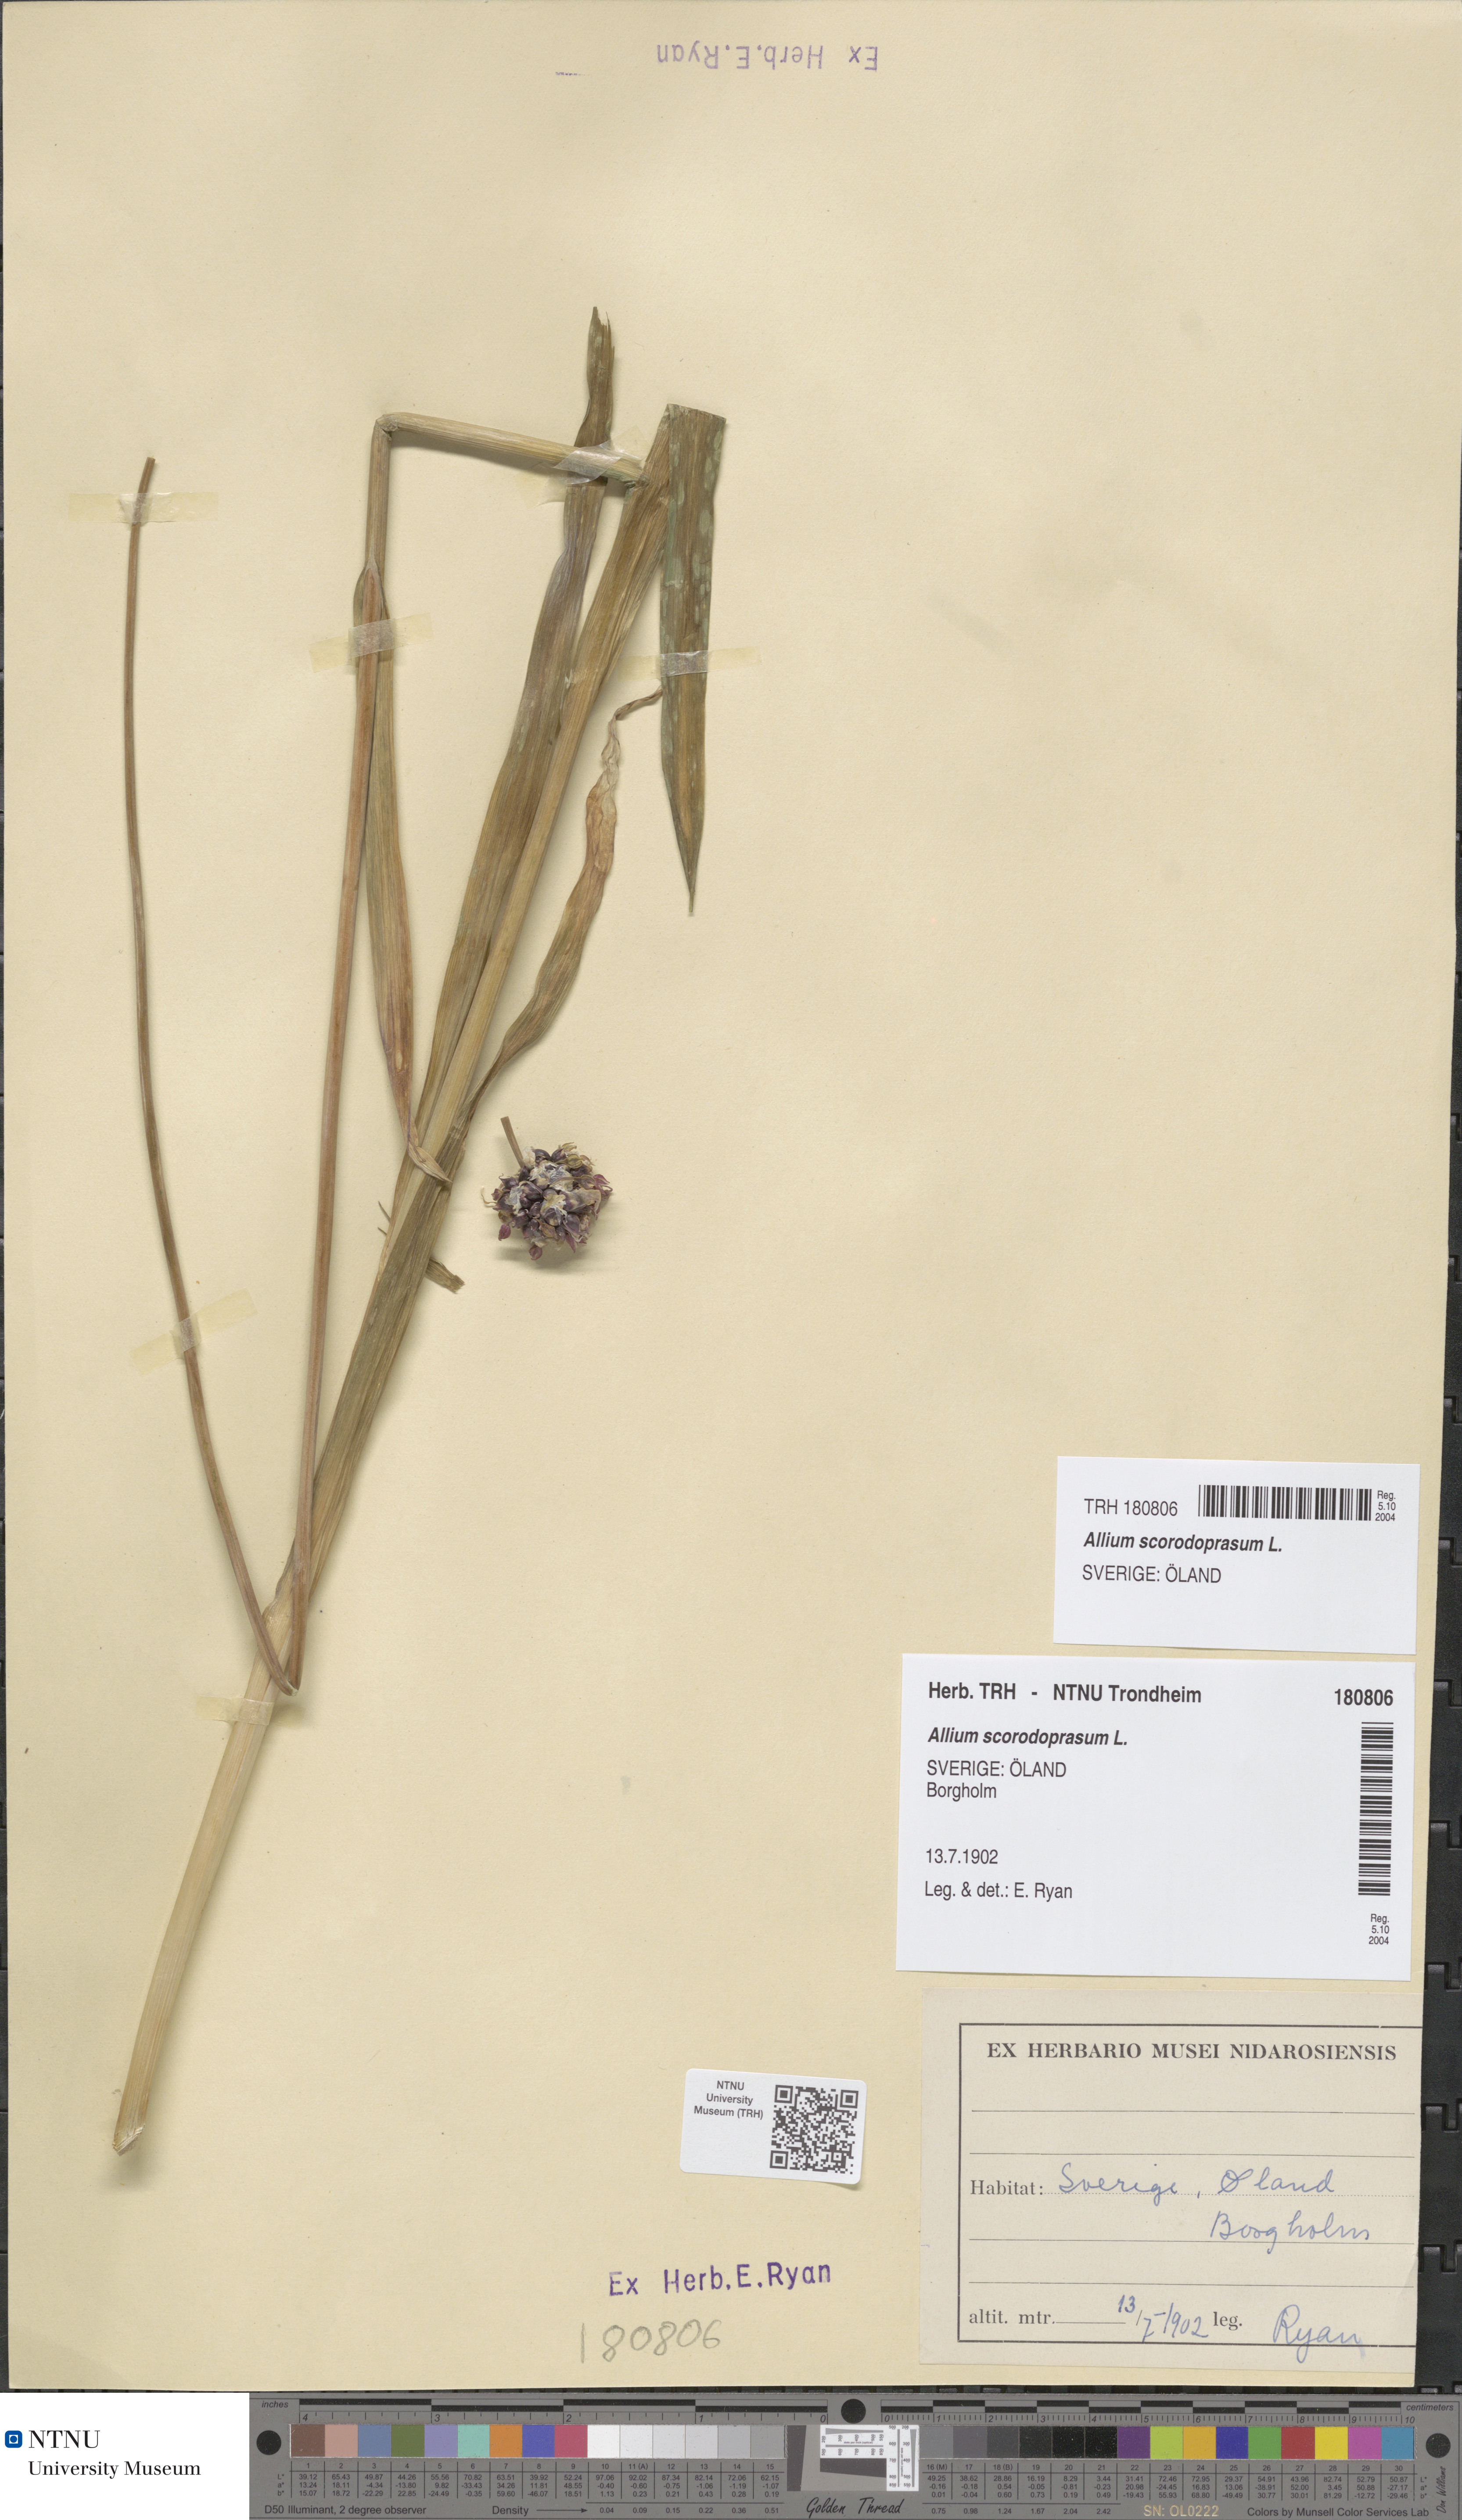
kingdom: Plantae
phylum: Tracheophyta
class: Liliopsida
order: Asparagales
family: Amaryllidaceae
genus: Allium
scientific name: Allium scorodoprasum
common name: Sand leek
